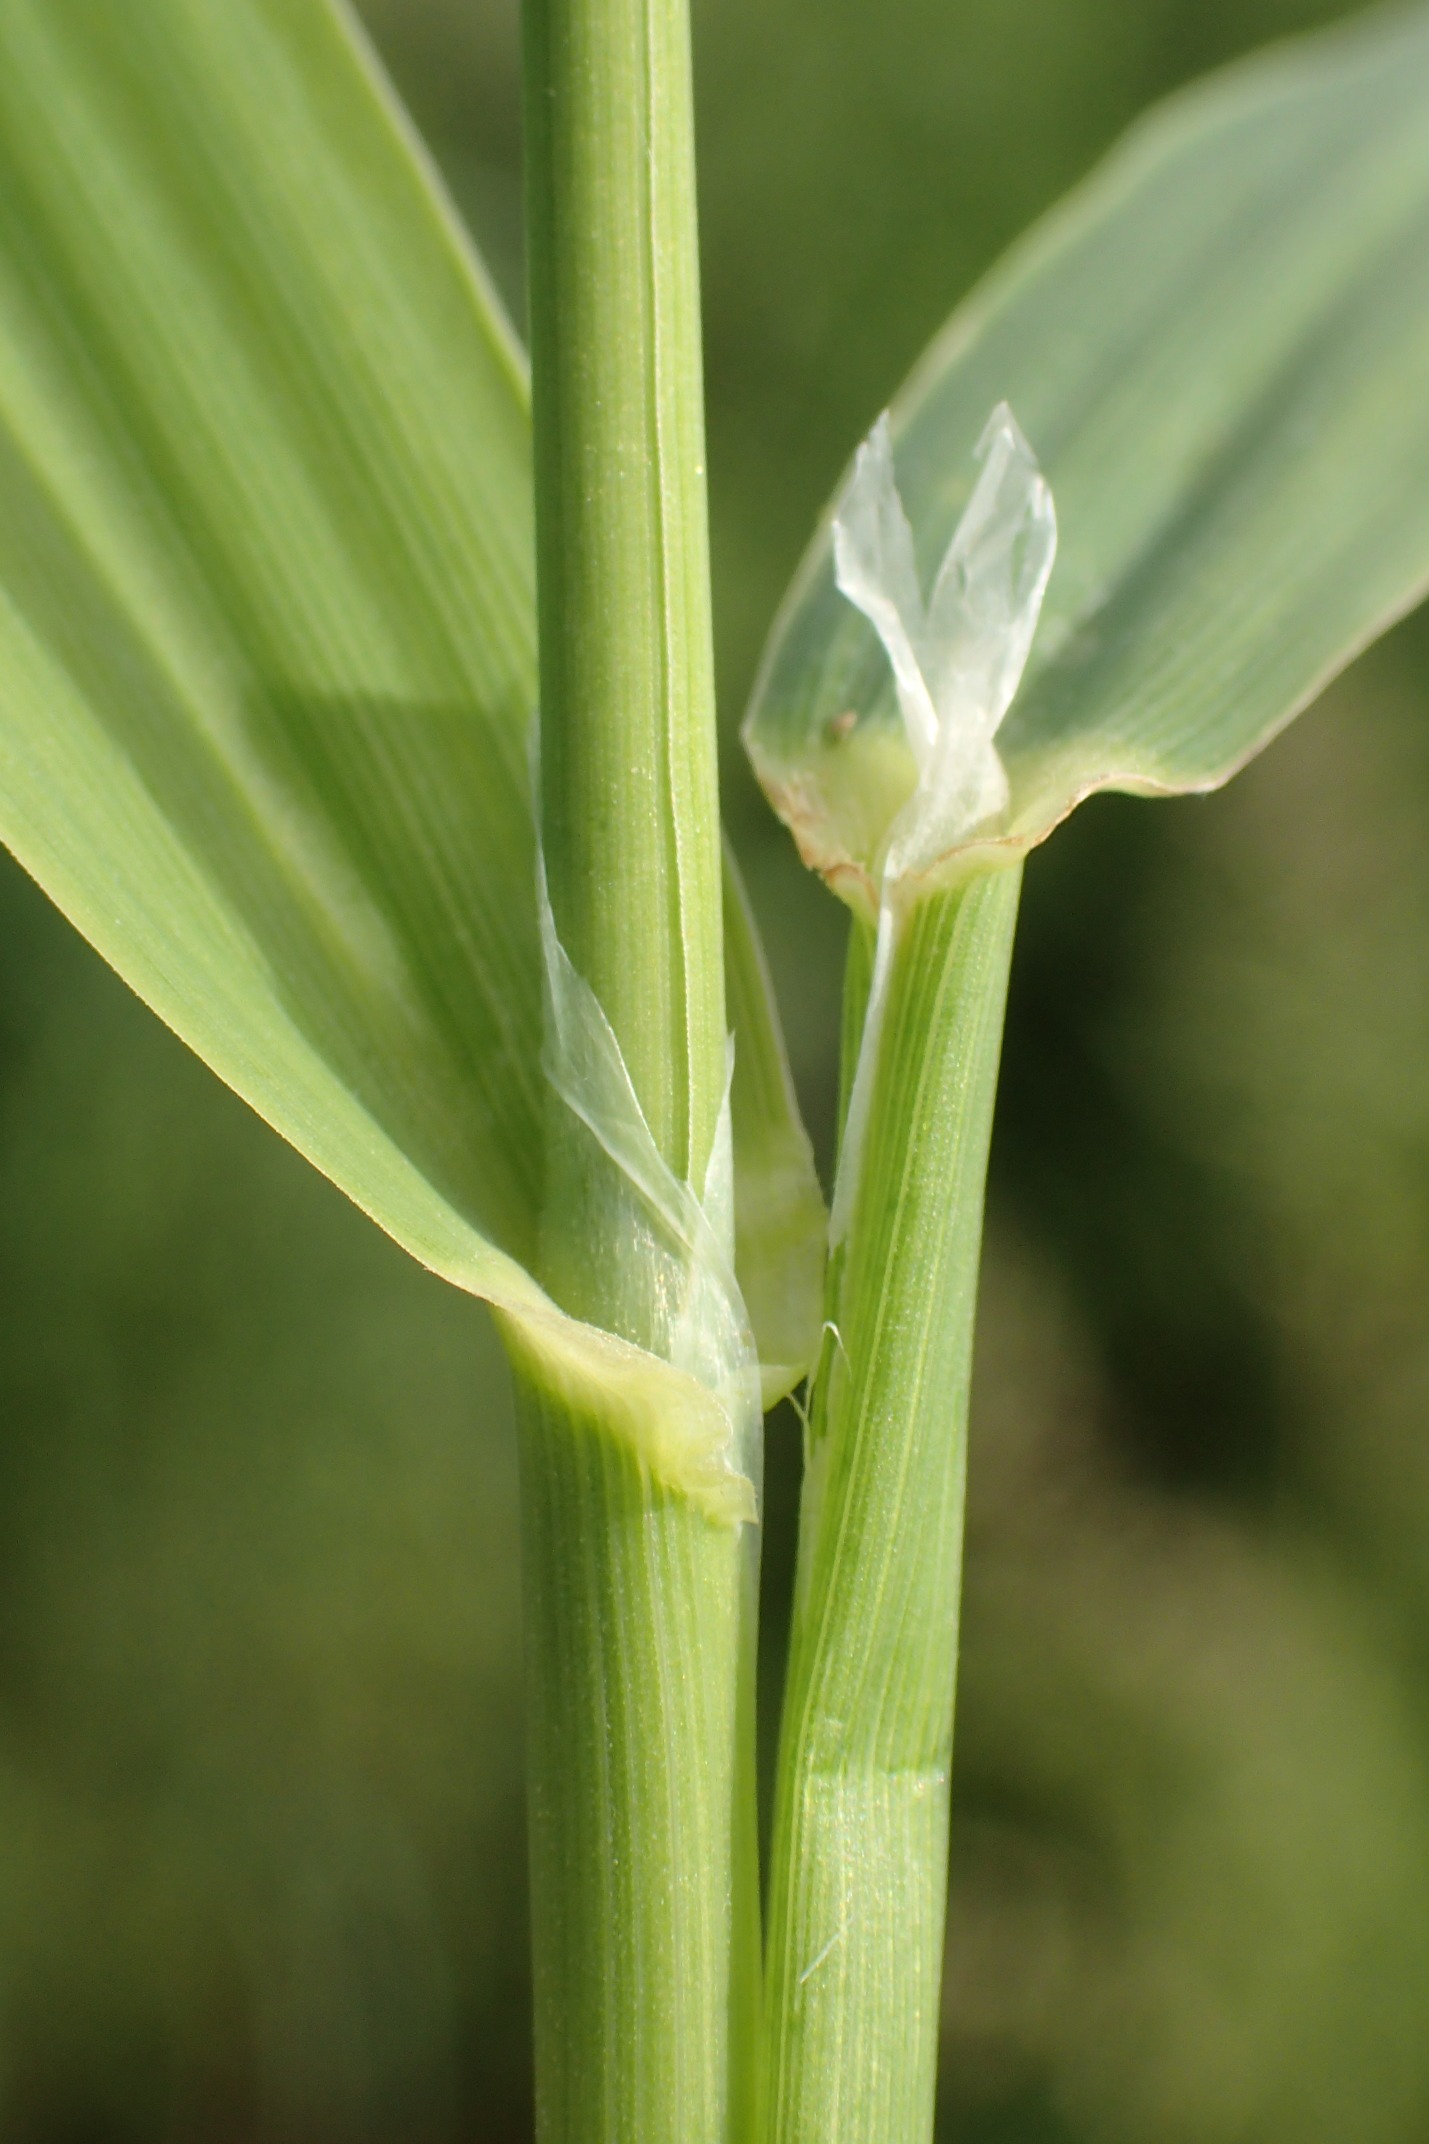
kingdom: Plantae
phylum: Tracheophyta
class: Liliopsida
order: Poales
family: Poaceae
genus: Phalaris
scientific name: Phalaris arundinacea
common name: Rørgræs
